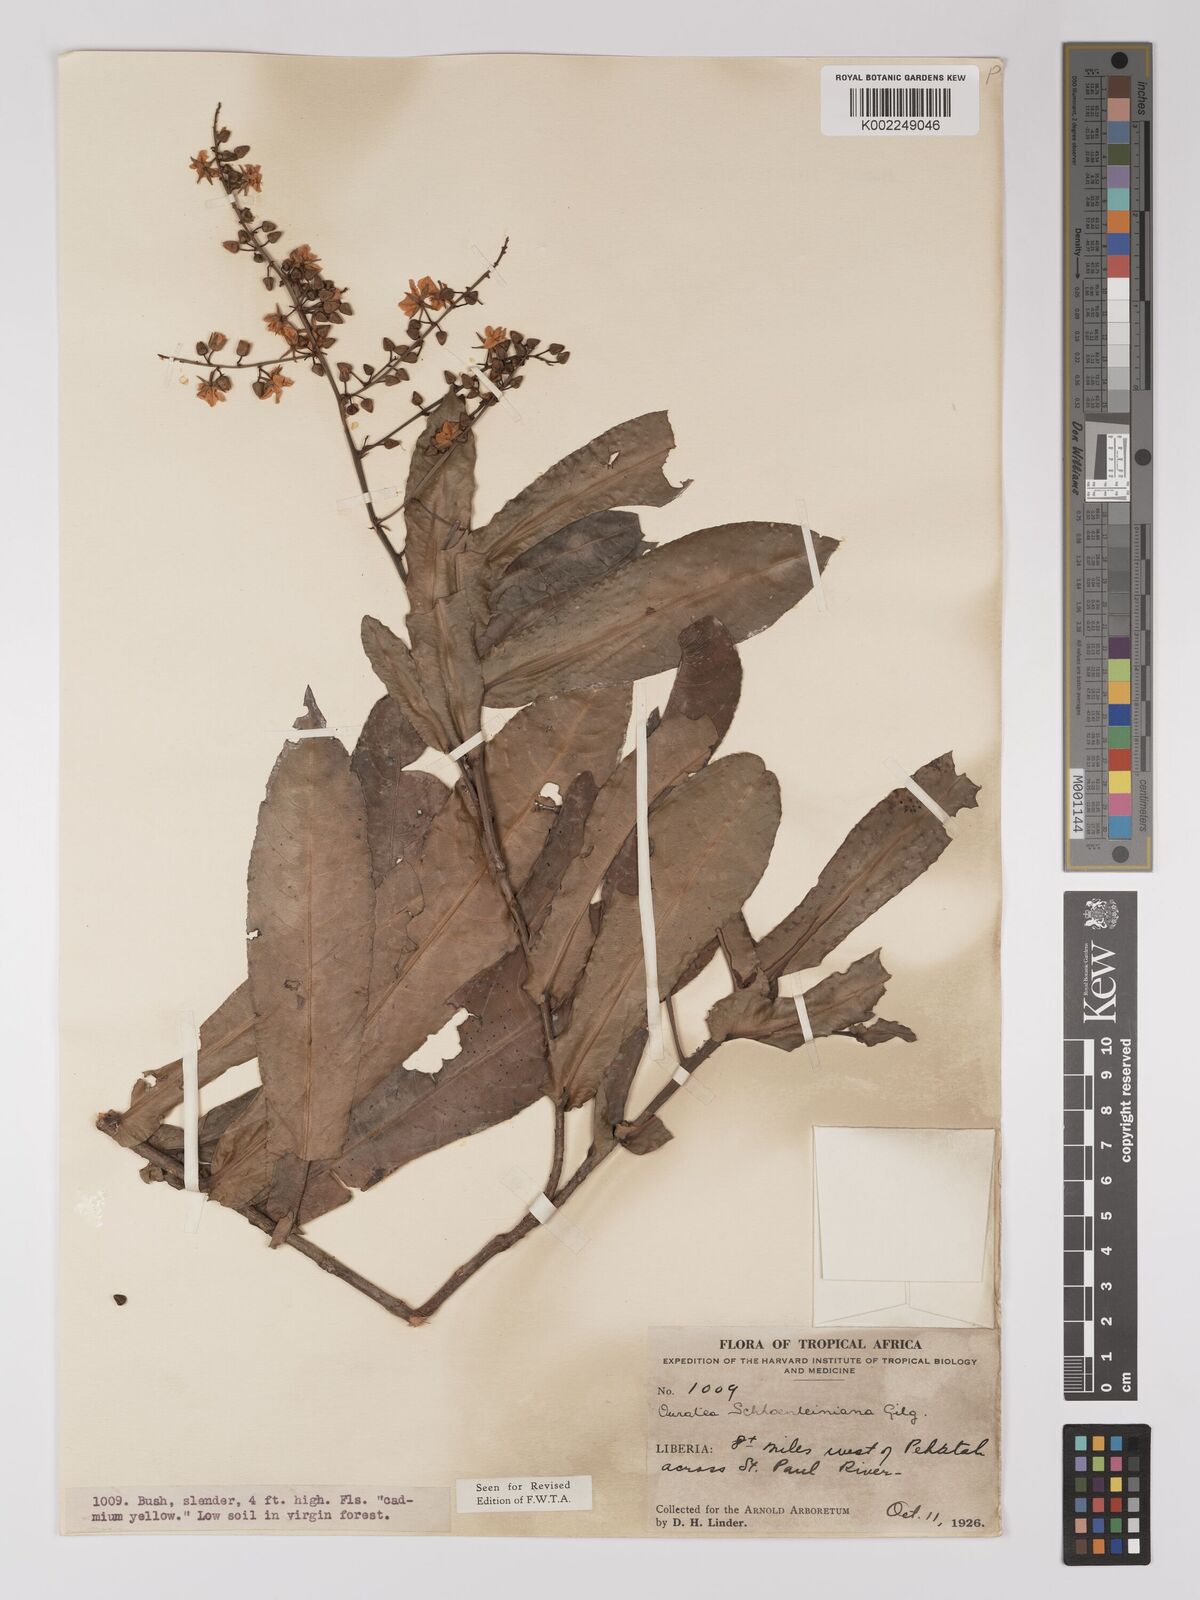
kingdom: Plantae
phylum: Tracheophyta
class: Magnoliopsida
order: Malpighiales
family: Ochnaceae
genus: Campylospermum
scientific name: Campylospermum schoenleinianum
